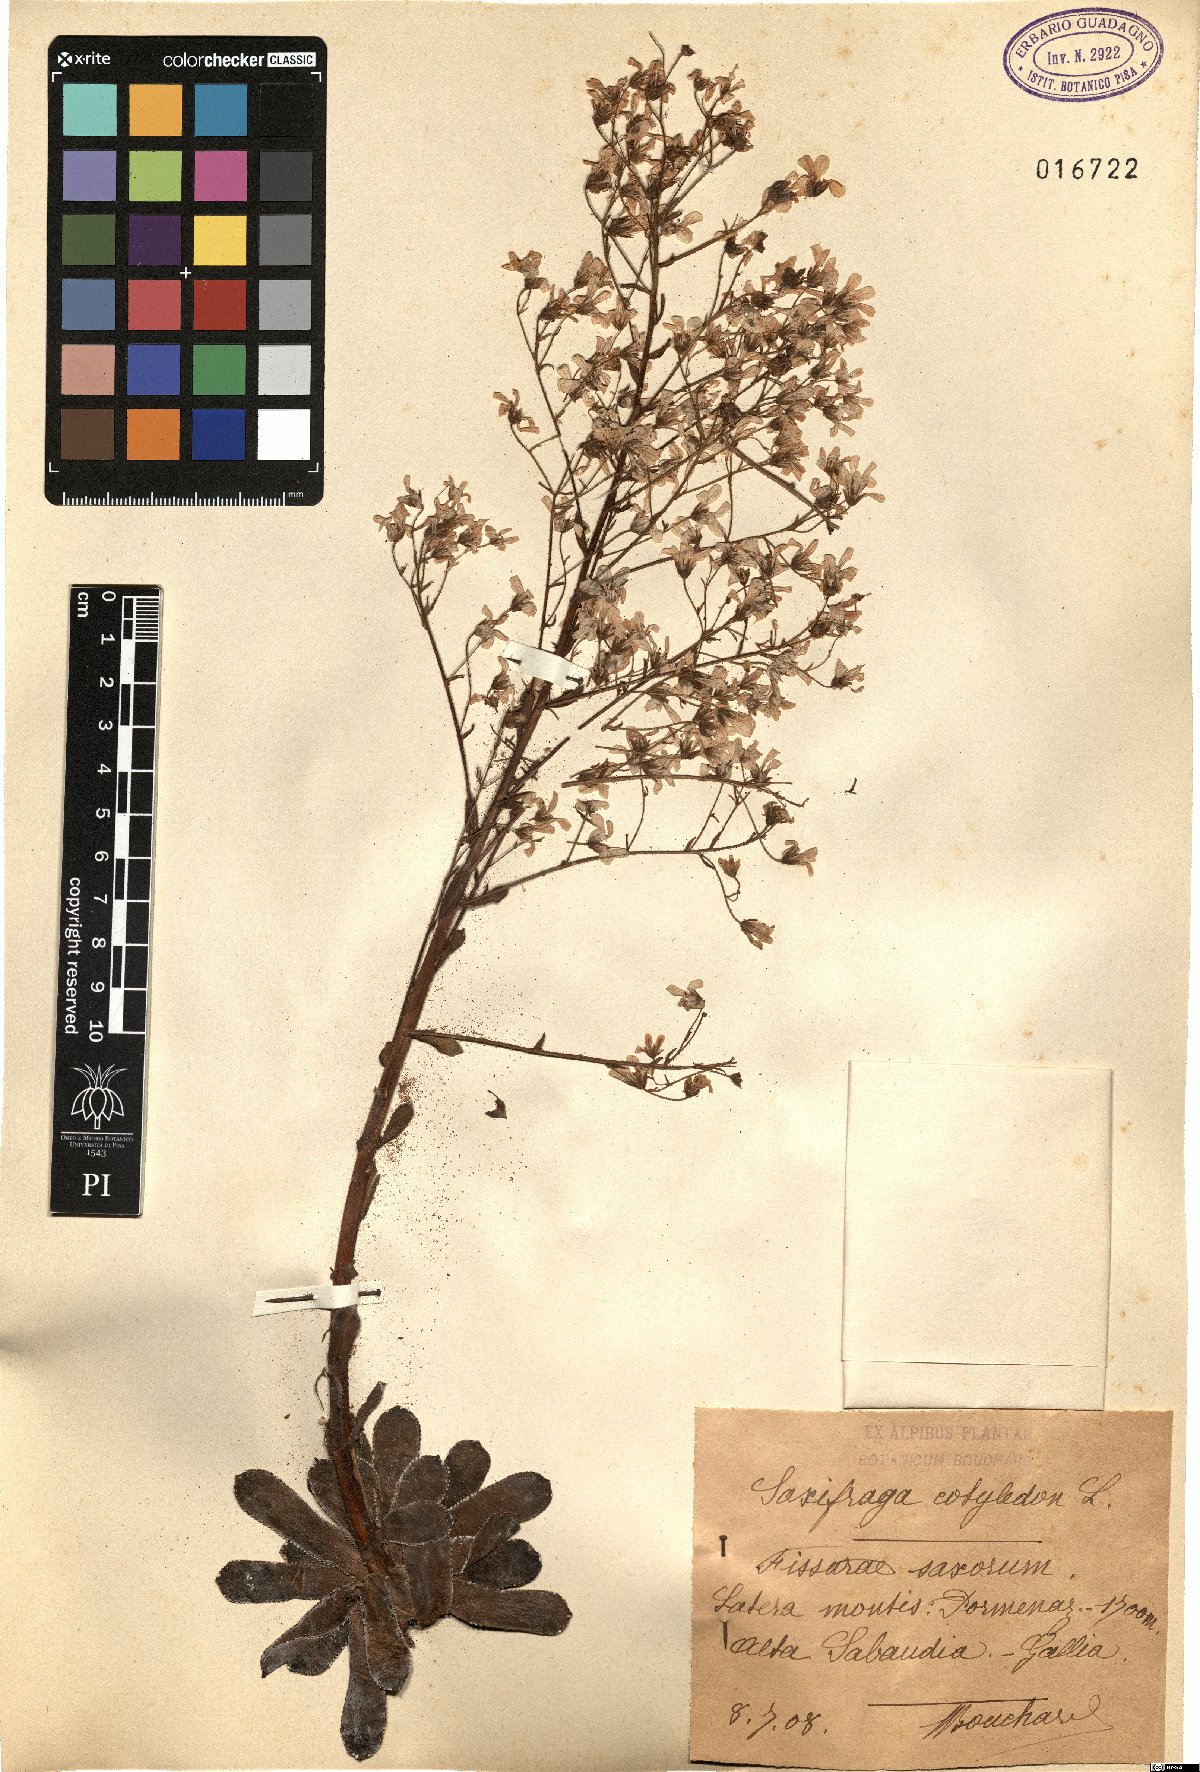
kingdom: Plantae
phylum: Tracheophyta
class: Magnoliopsida
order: Saxifragales
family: Saxifragaceae
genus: Saxifraga
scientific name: Saxifraga cotyledon
